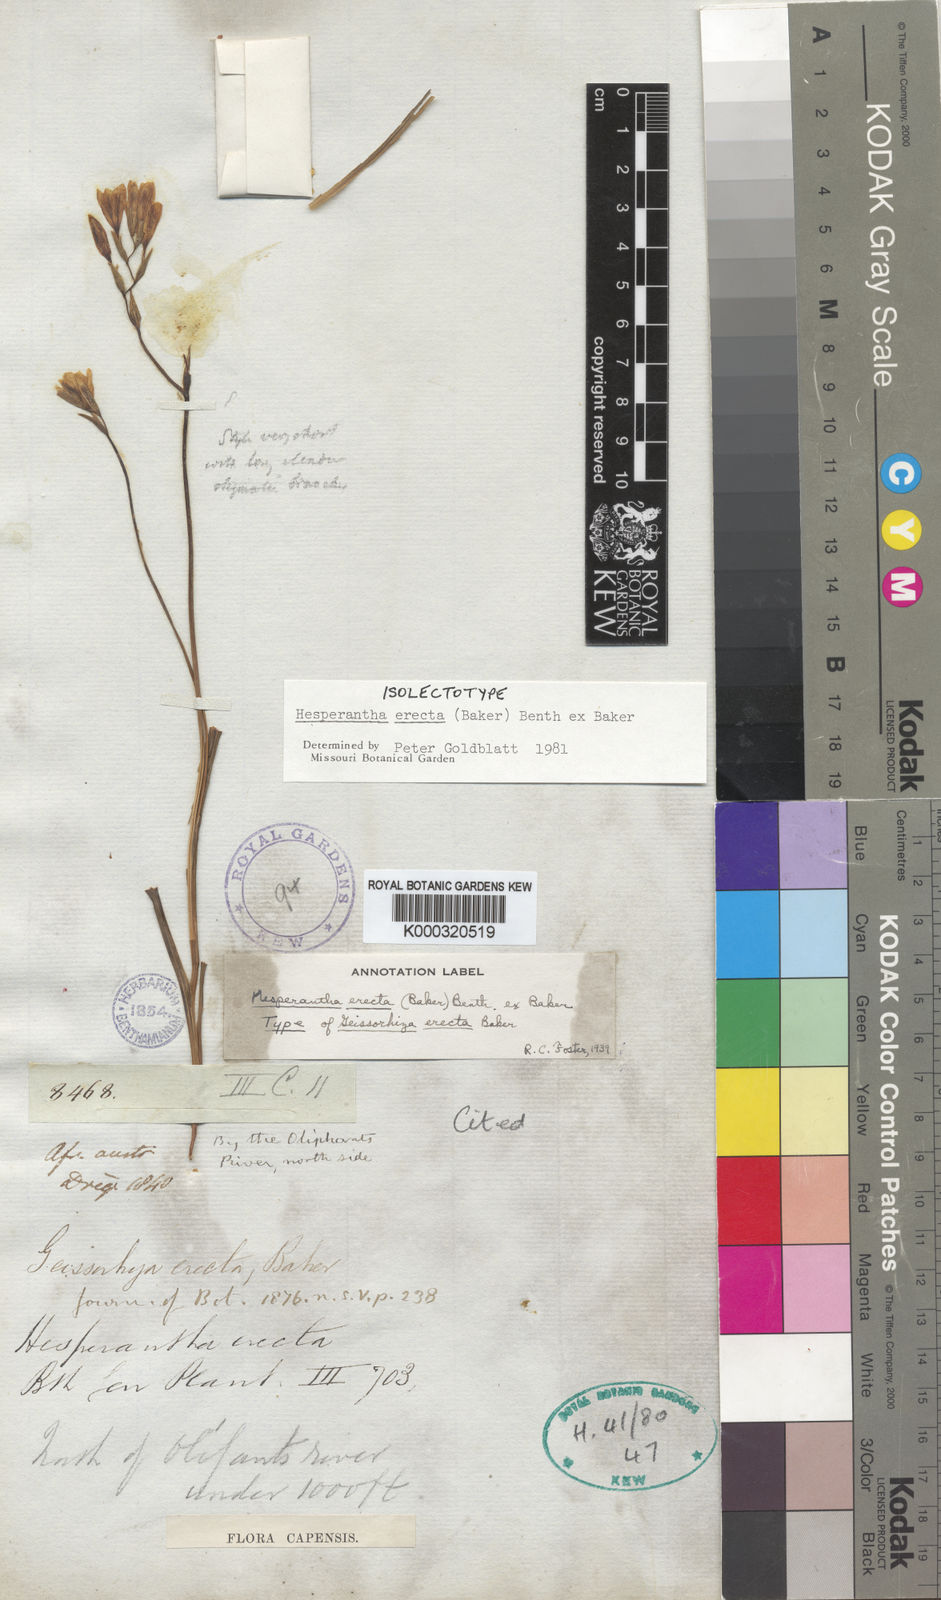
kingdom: Plantae
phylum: Tracheophyta
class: Liliopsida
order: Asparagales
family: Iridaceae
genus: Hesperantha
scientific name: Hesperantha
